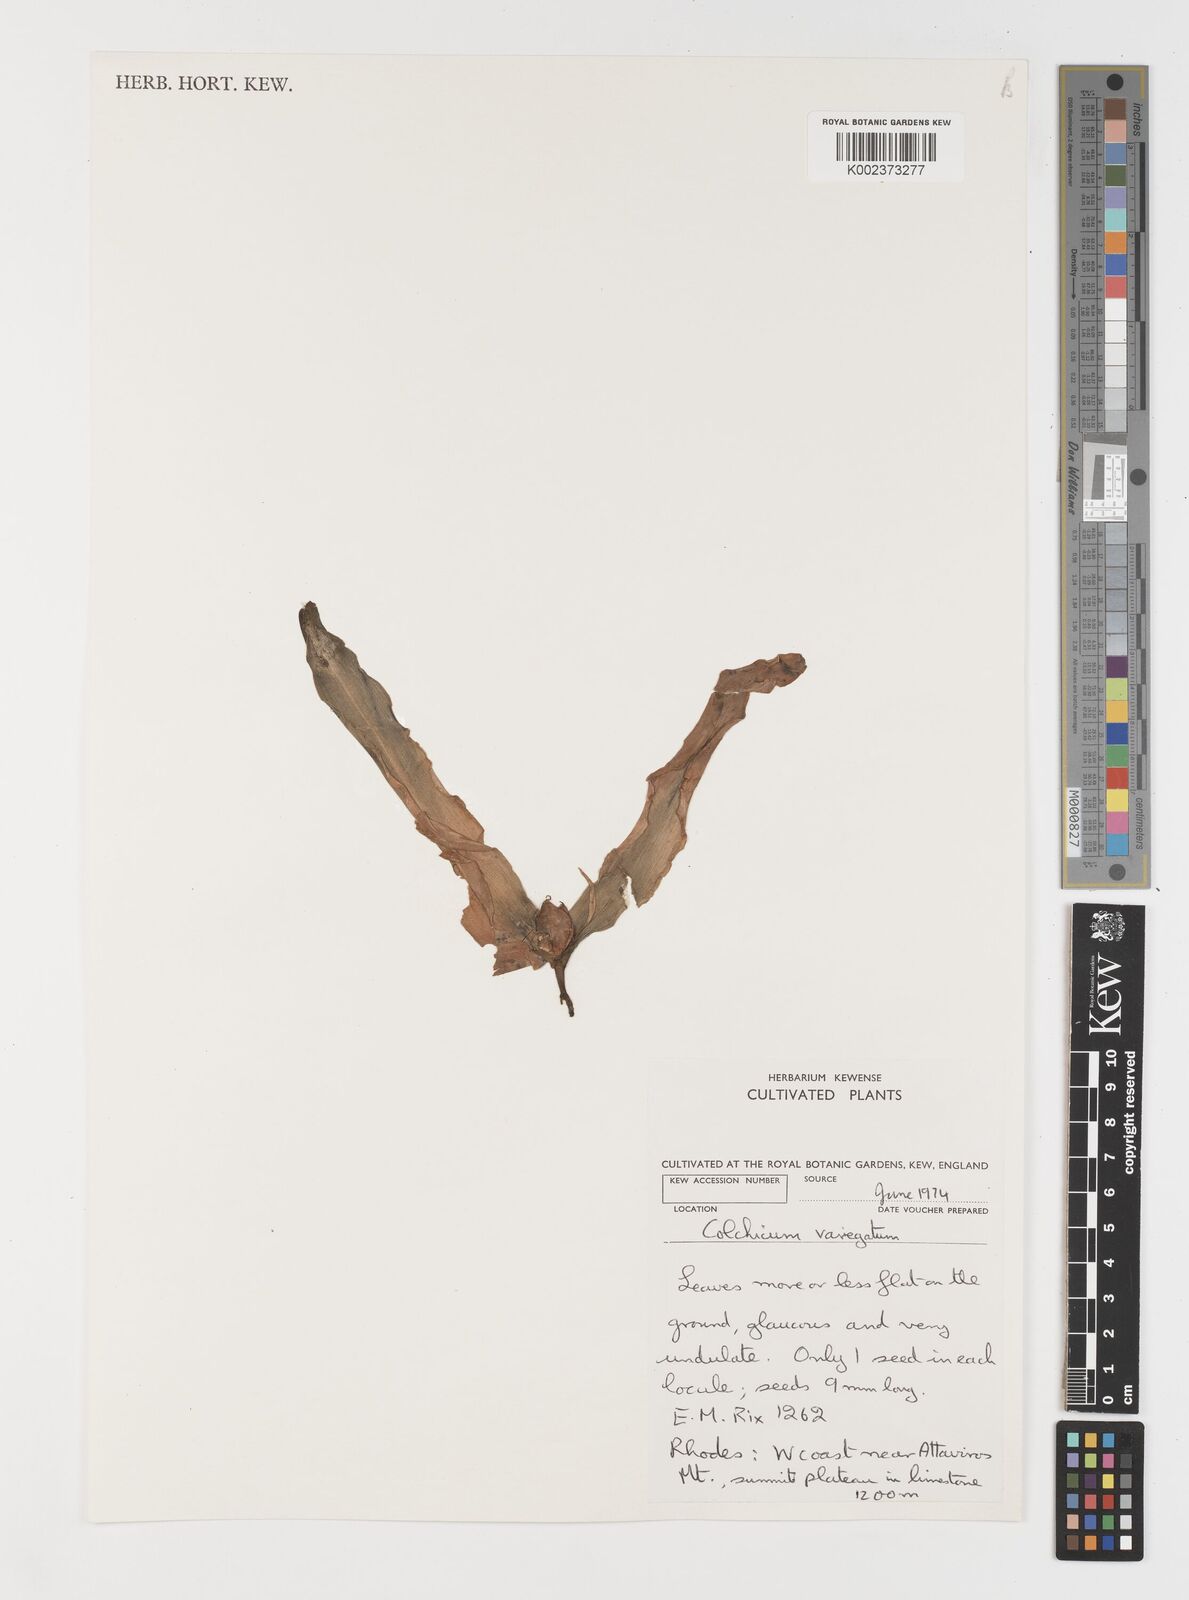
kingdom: Plantae
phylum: Tracheophyta
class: Liliopsida
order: Liliales
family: Colchicaceae
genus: Colchicum
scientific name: Colchicum variegatum
